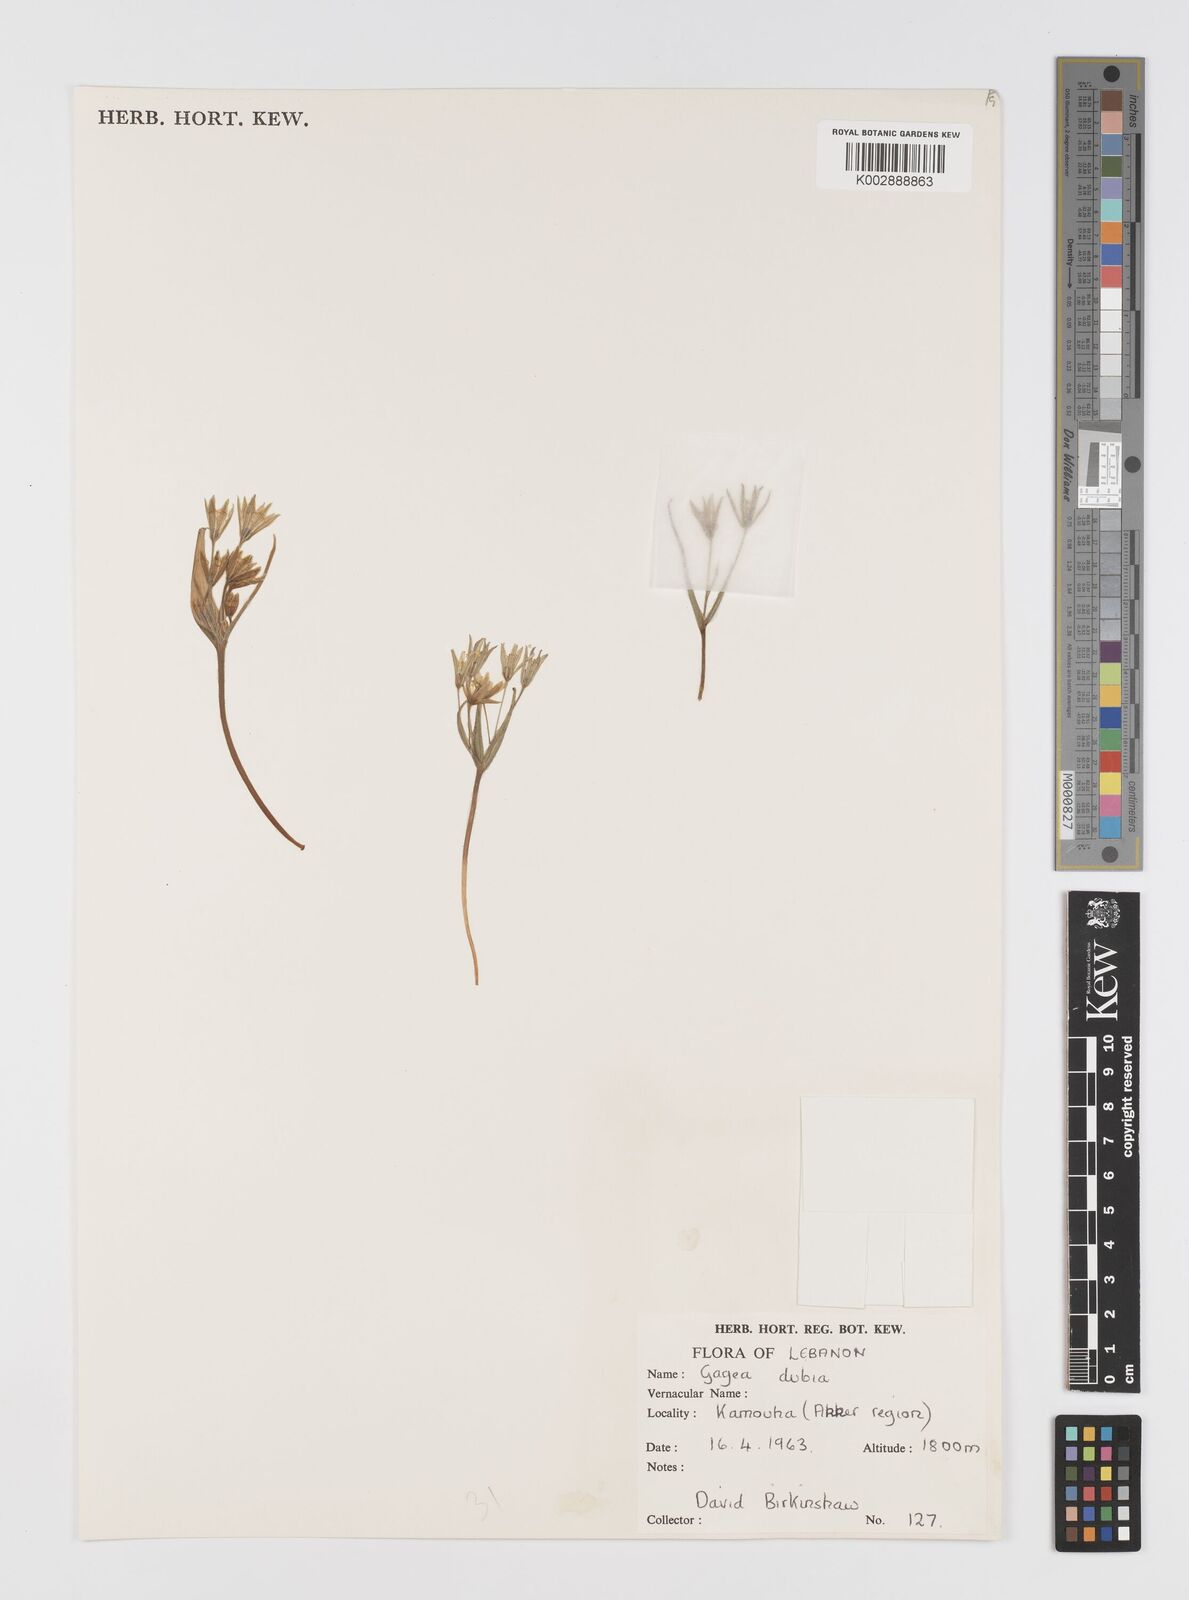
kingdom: Plantae
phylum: Tracheophyta
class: Liliopsida
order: Liliales
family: Liliaceae
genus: Gagea
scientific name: Gagea
